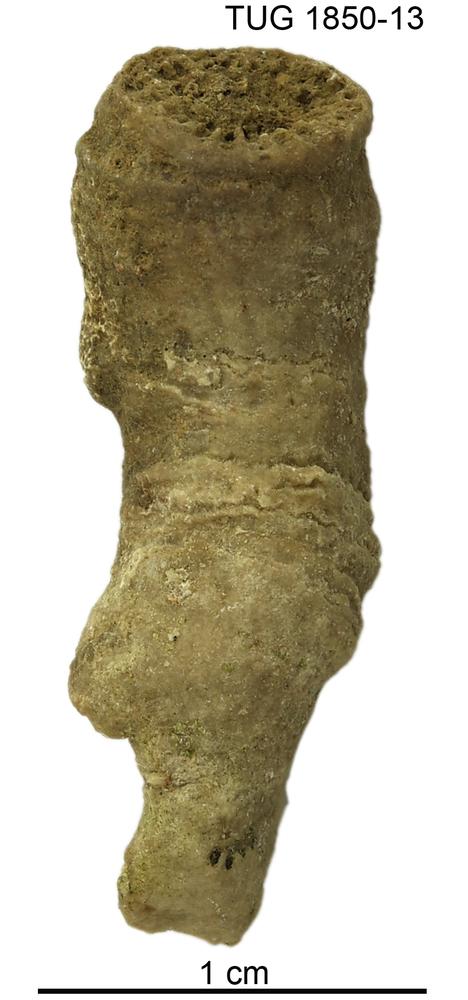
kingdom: Animalia
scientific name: Animalia
